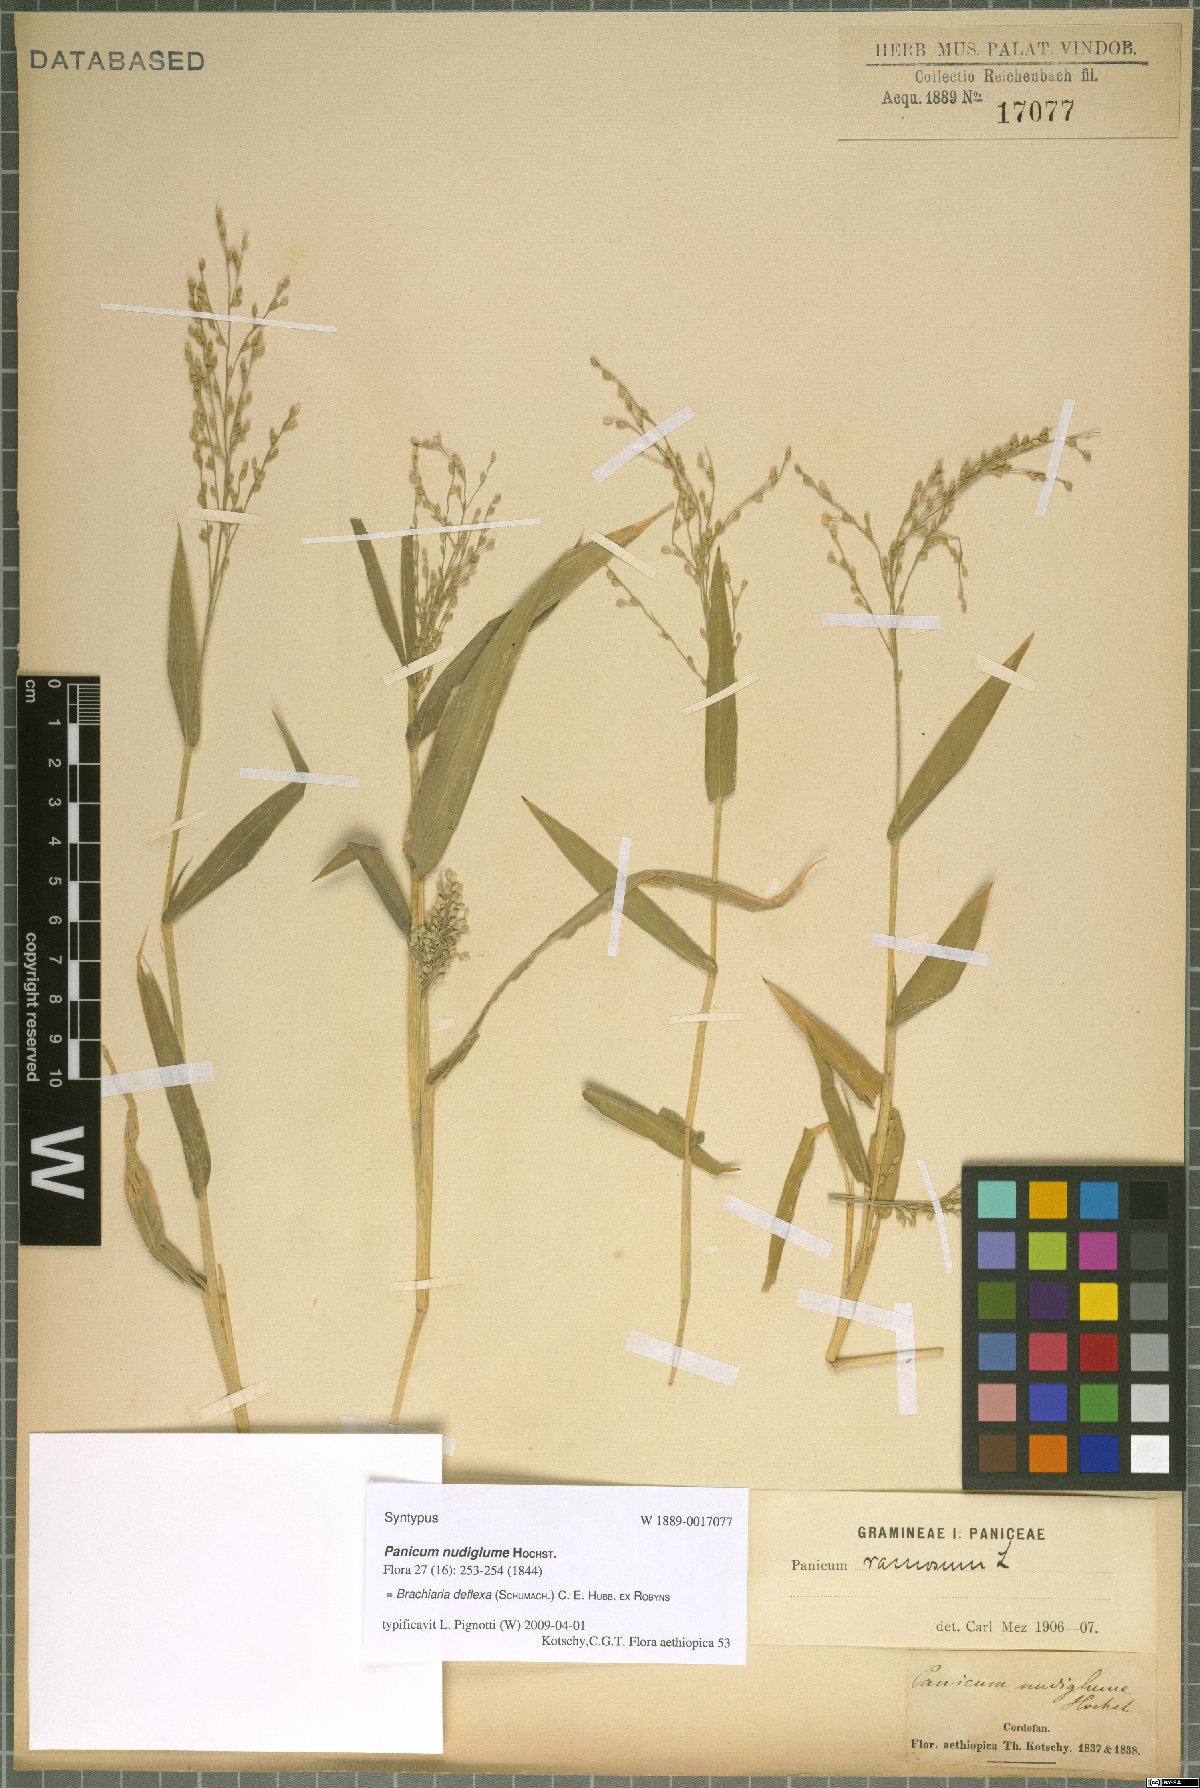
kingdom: Plantae
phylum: Tracheophyta
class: Liliopsida
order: Poales
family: Poaceae
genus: Urochloa
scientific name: Urochloa deflexa
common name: Guinea millet
